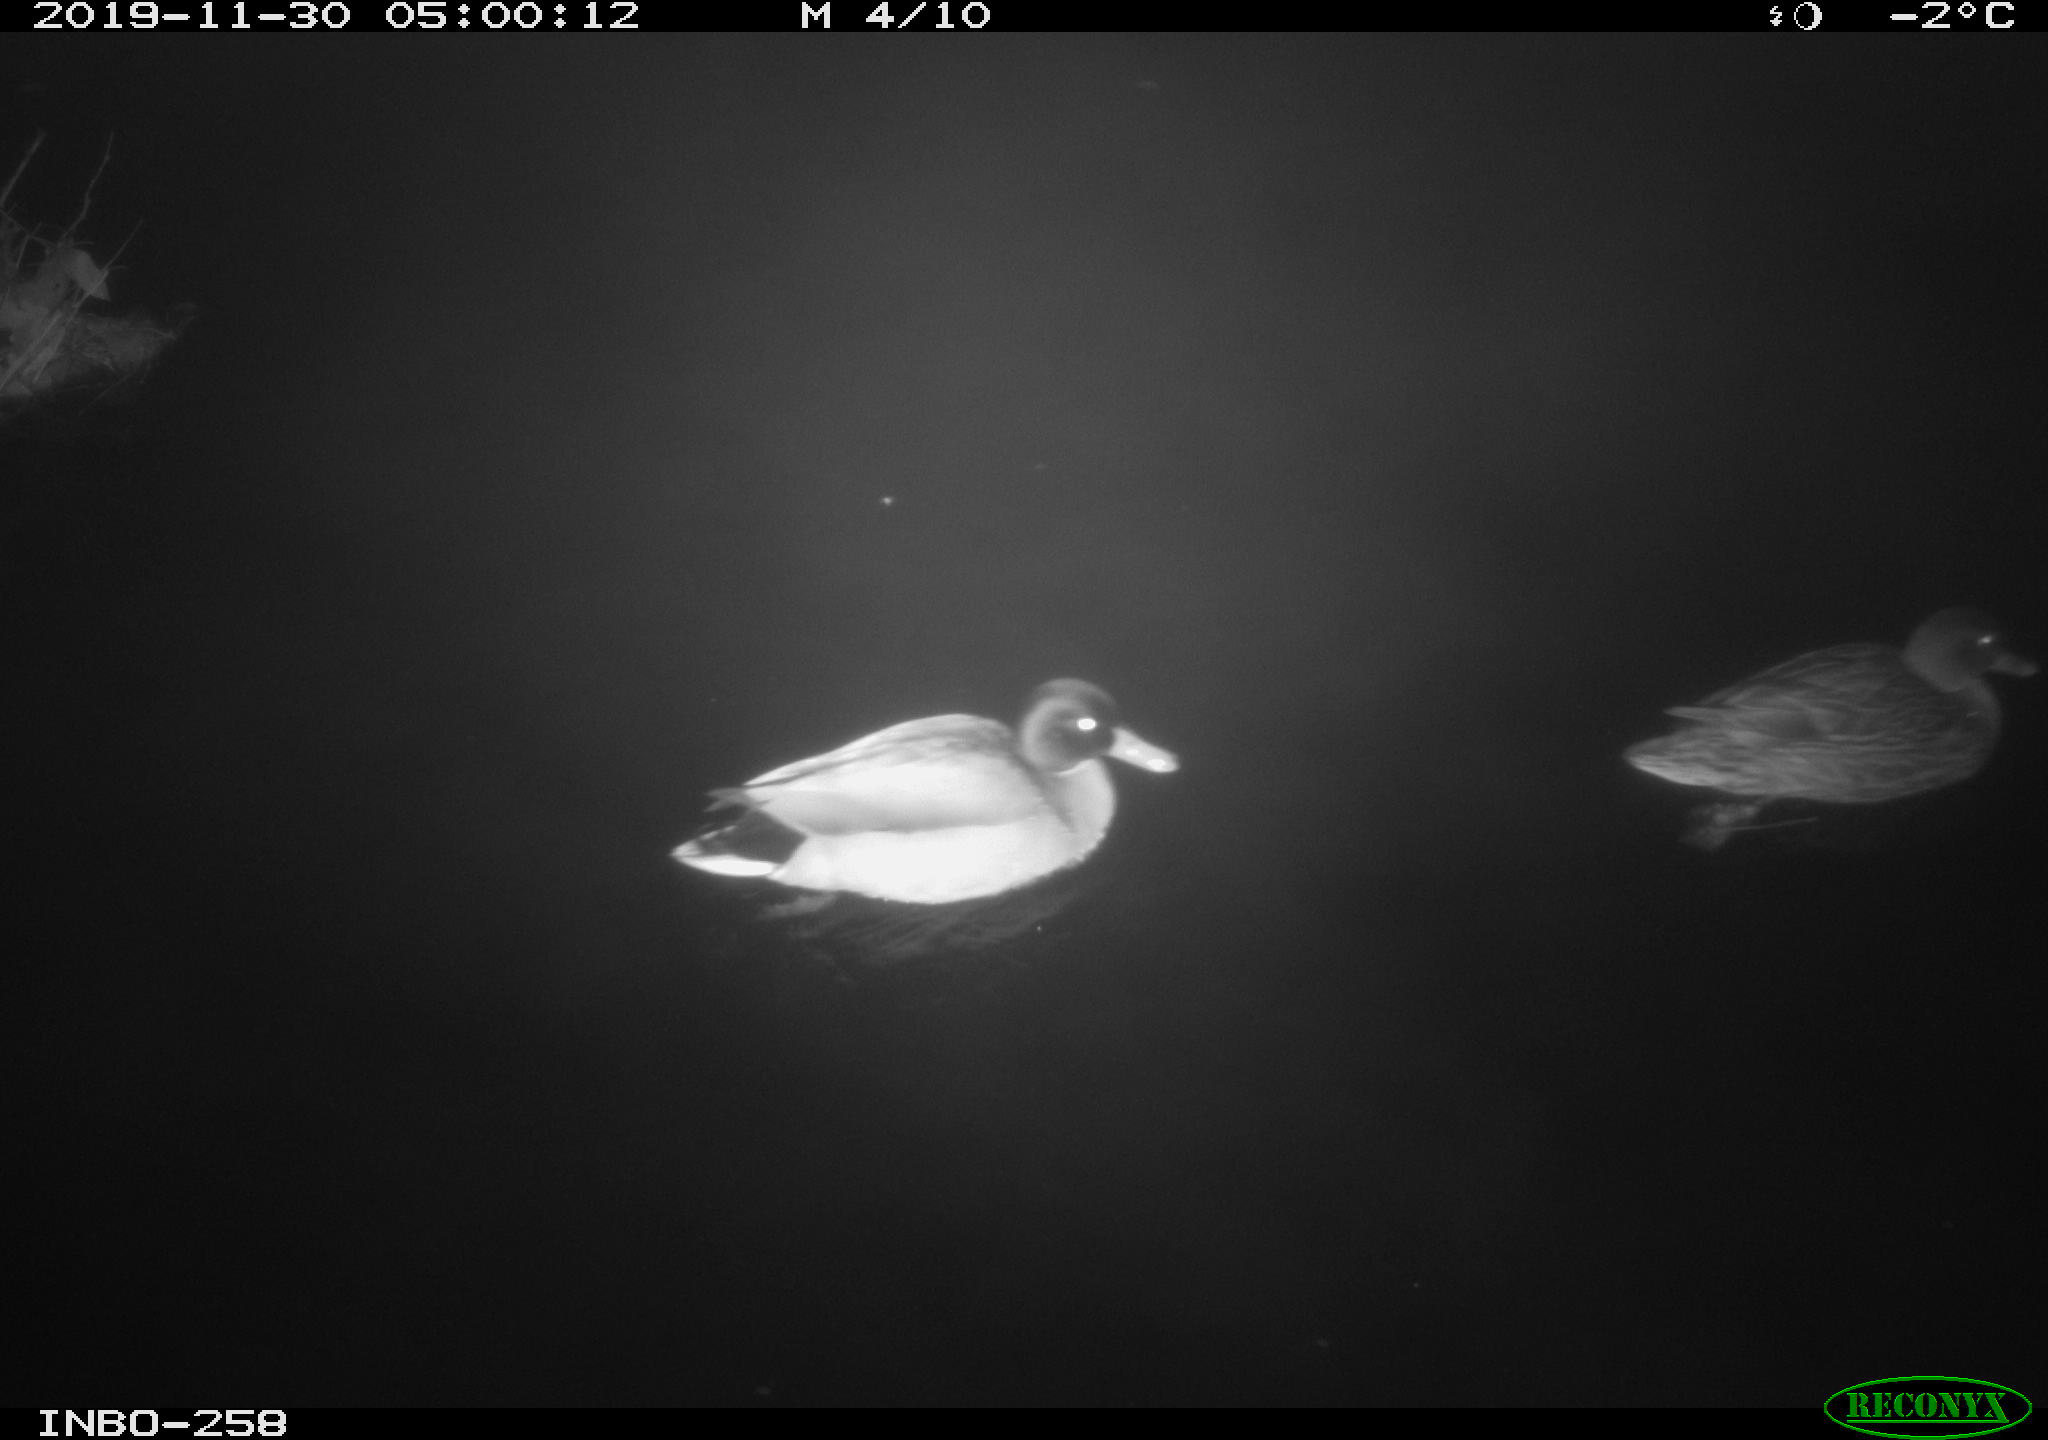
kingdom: Animalia
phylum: Chordata
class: Aves
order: Anseriformes
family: Anatidae
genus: Anas
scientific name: Anas platyrhynchos
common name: Mallard
